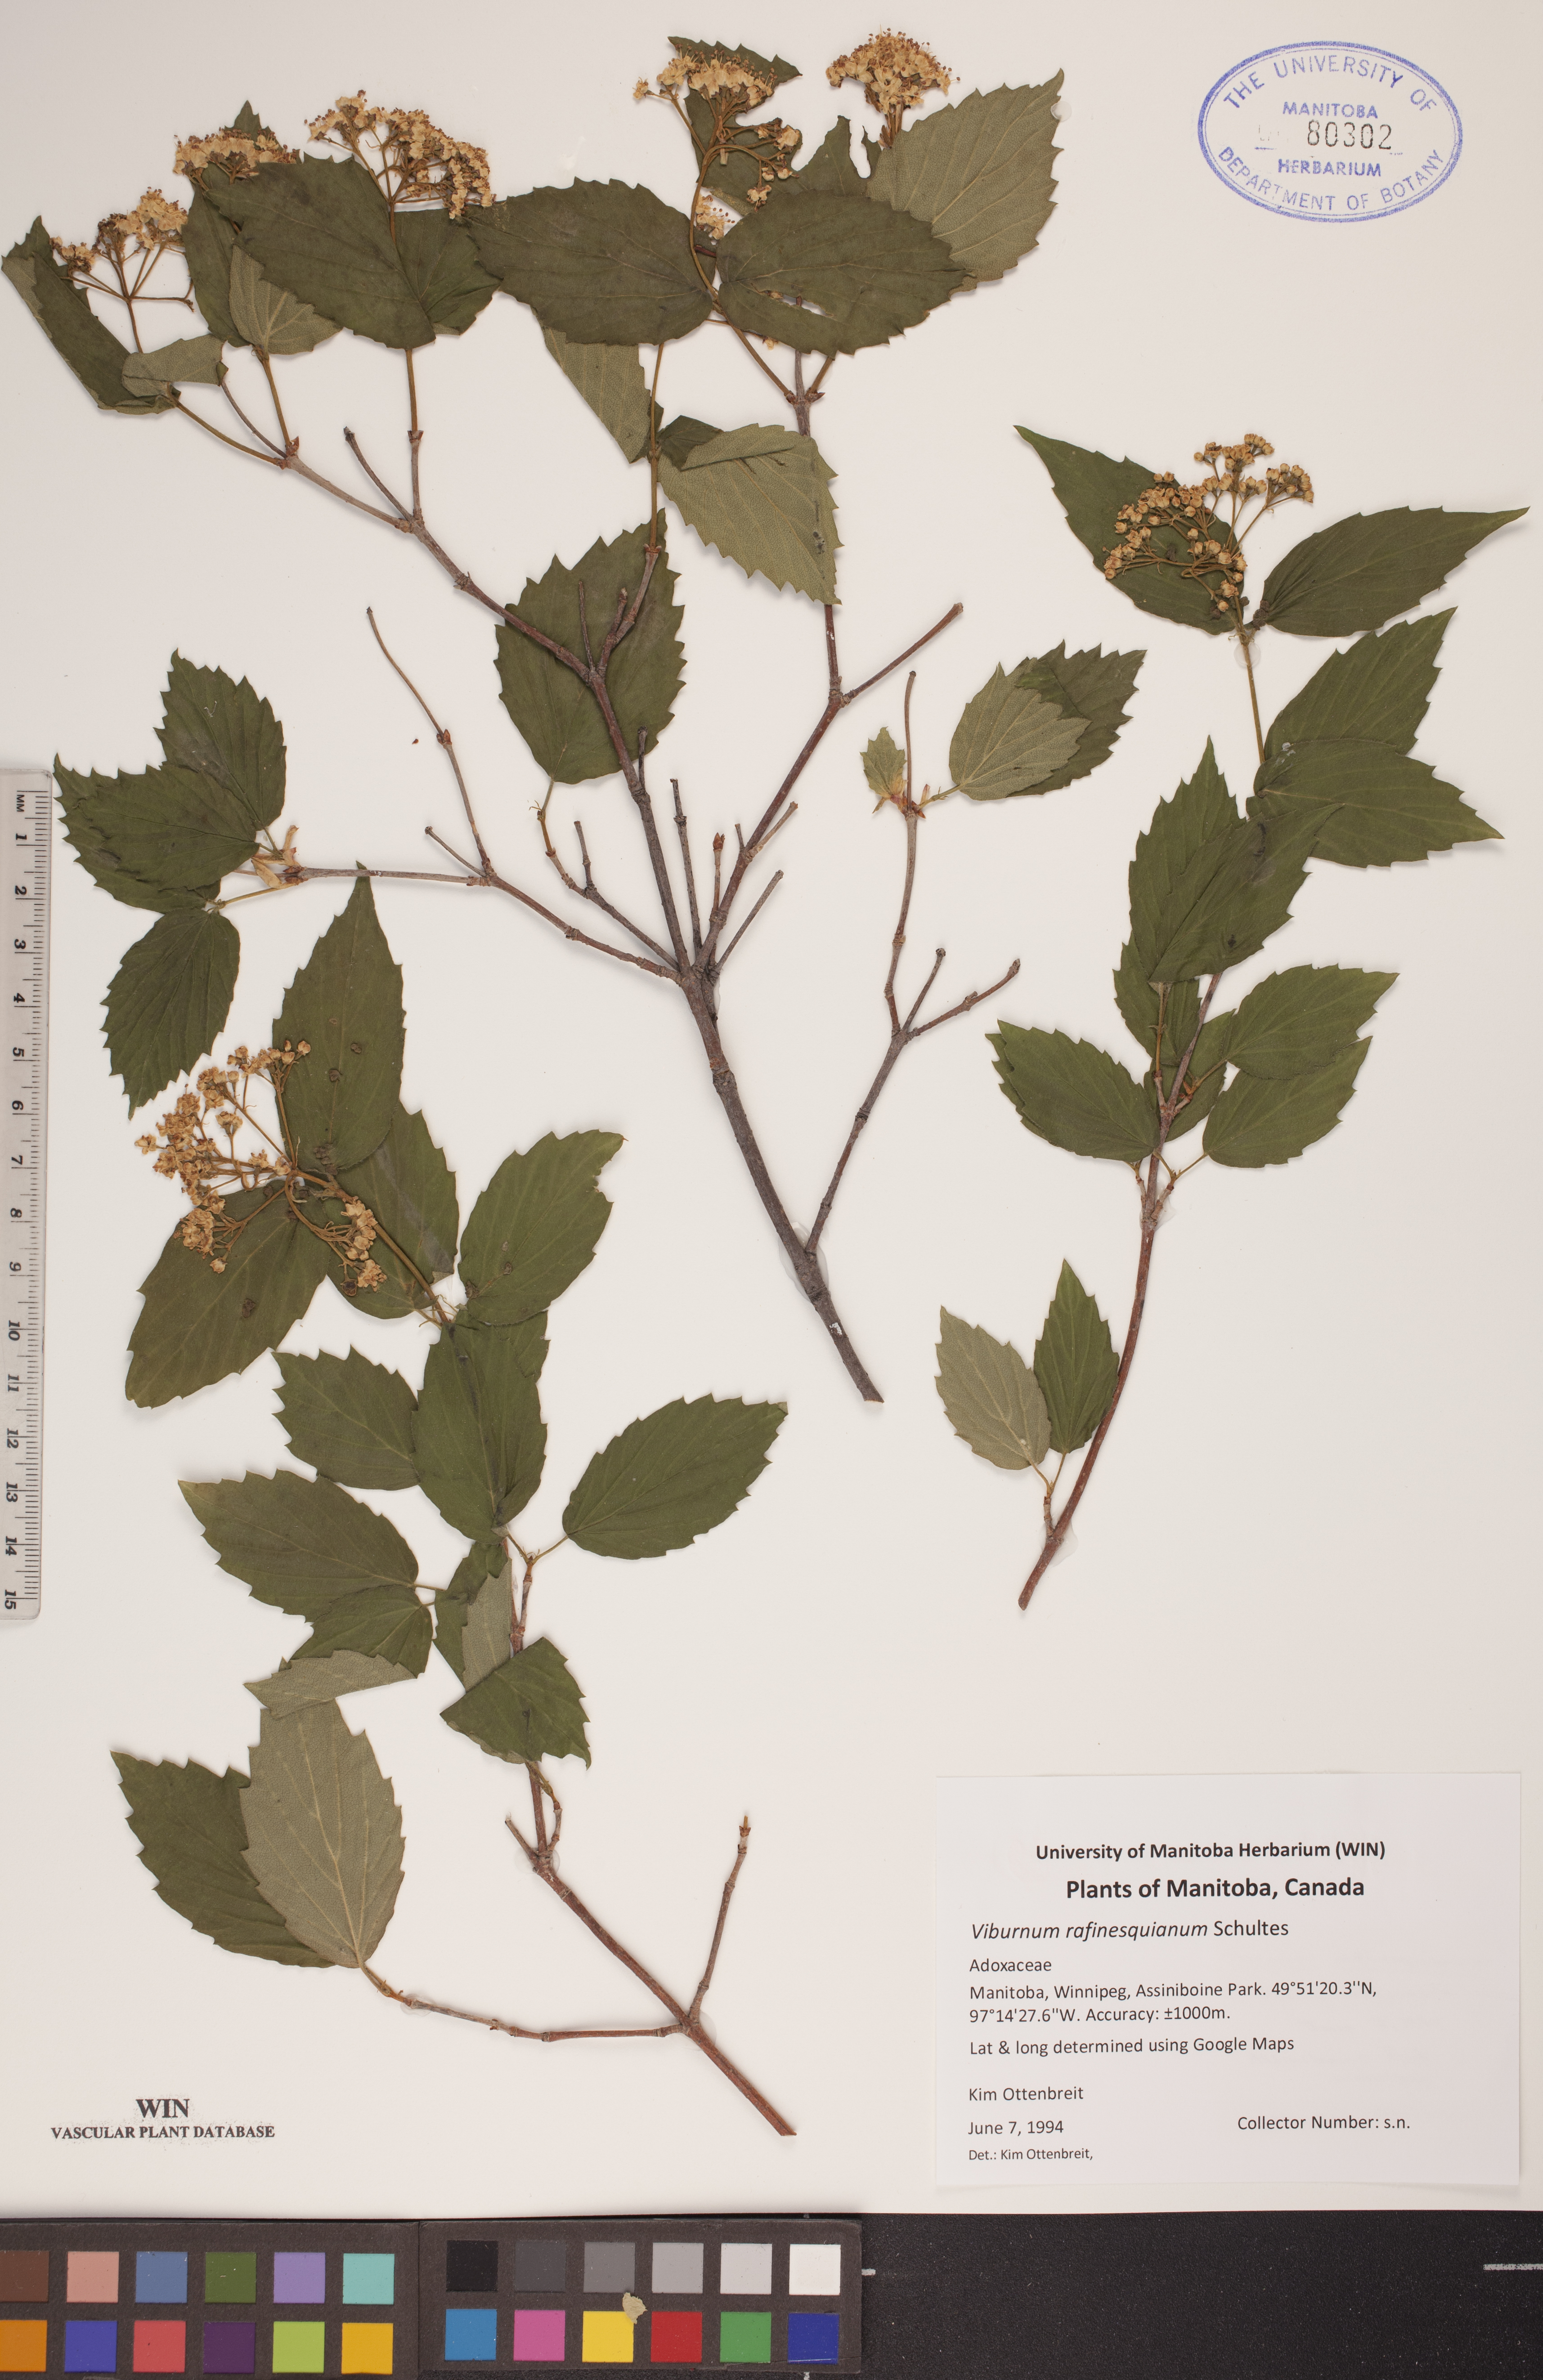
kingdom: Plantae
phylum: Tracheophyta
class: Magnoliopsida
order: Dipsacales
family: Viburnaceae
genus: Viburnum
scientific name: Viburnum rafinesquianum
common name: Downy arrow-wood
